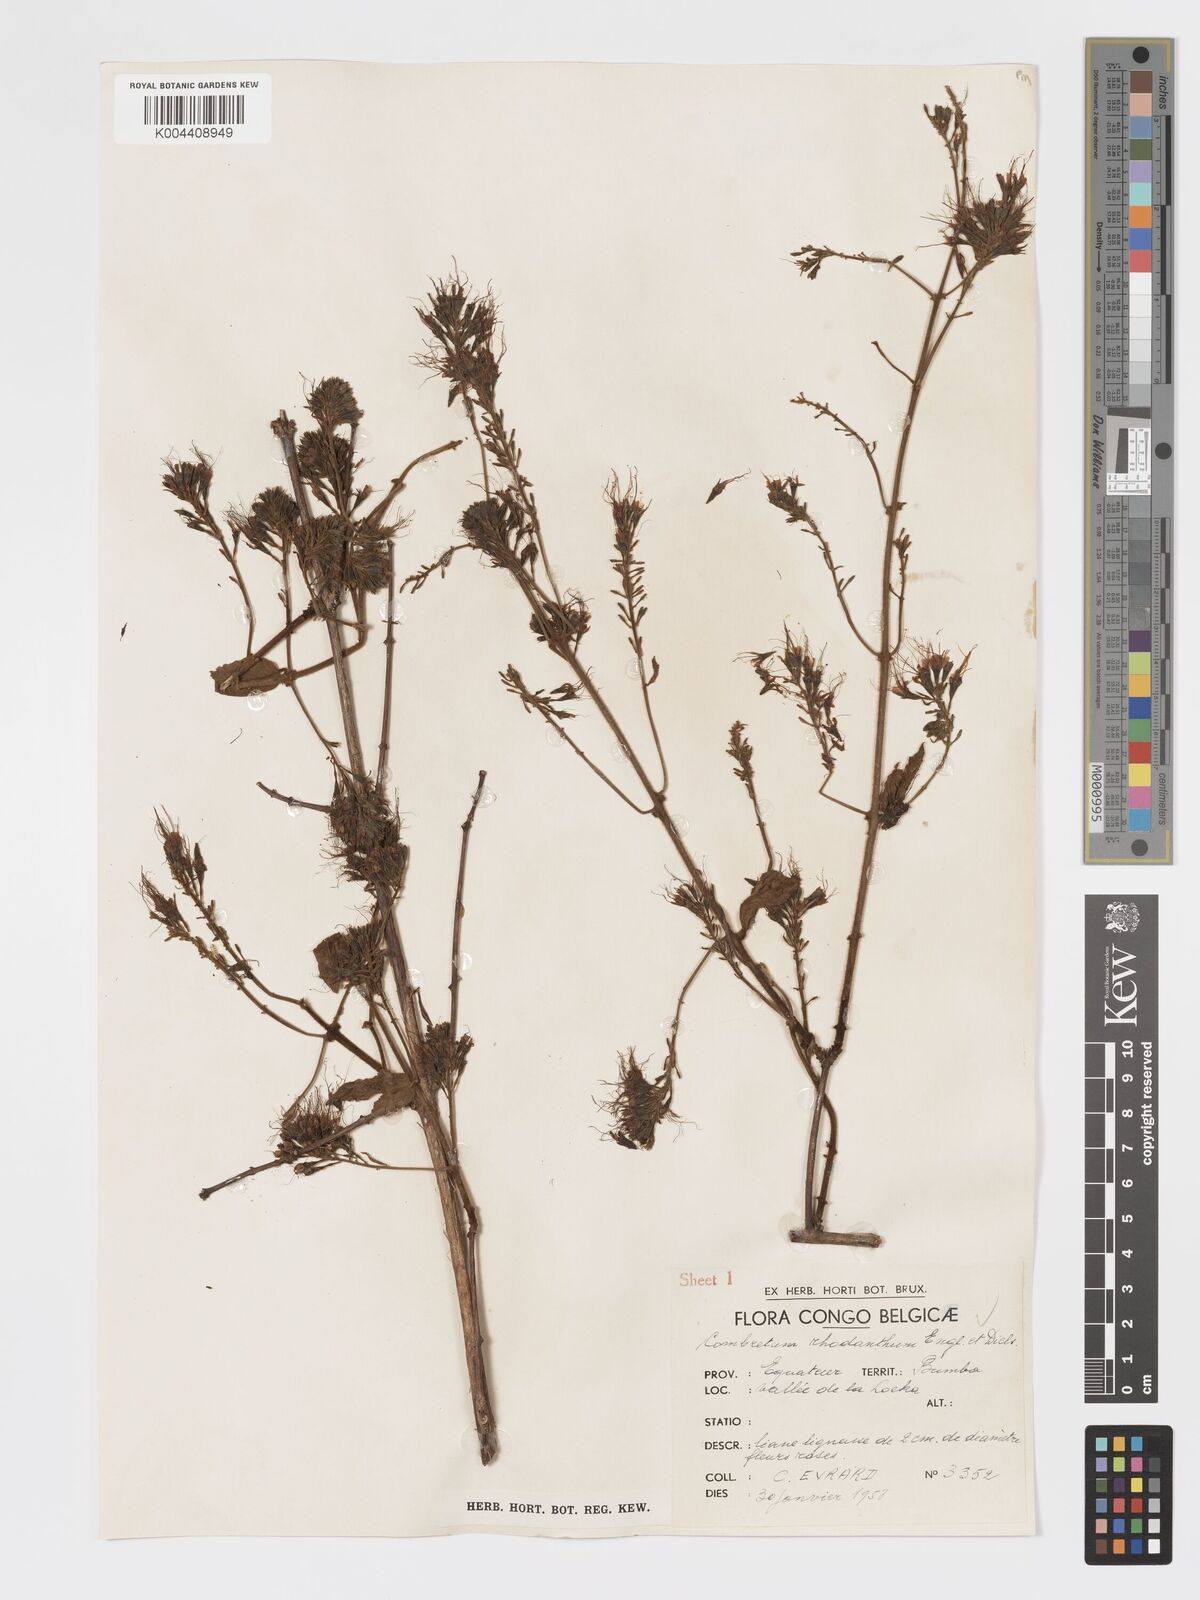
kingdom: Plantae
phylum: Tracheophyta
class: Magnoliopsida
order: Myrtales
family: Combretaceae
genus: Combretum
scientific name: Combretum comosum
